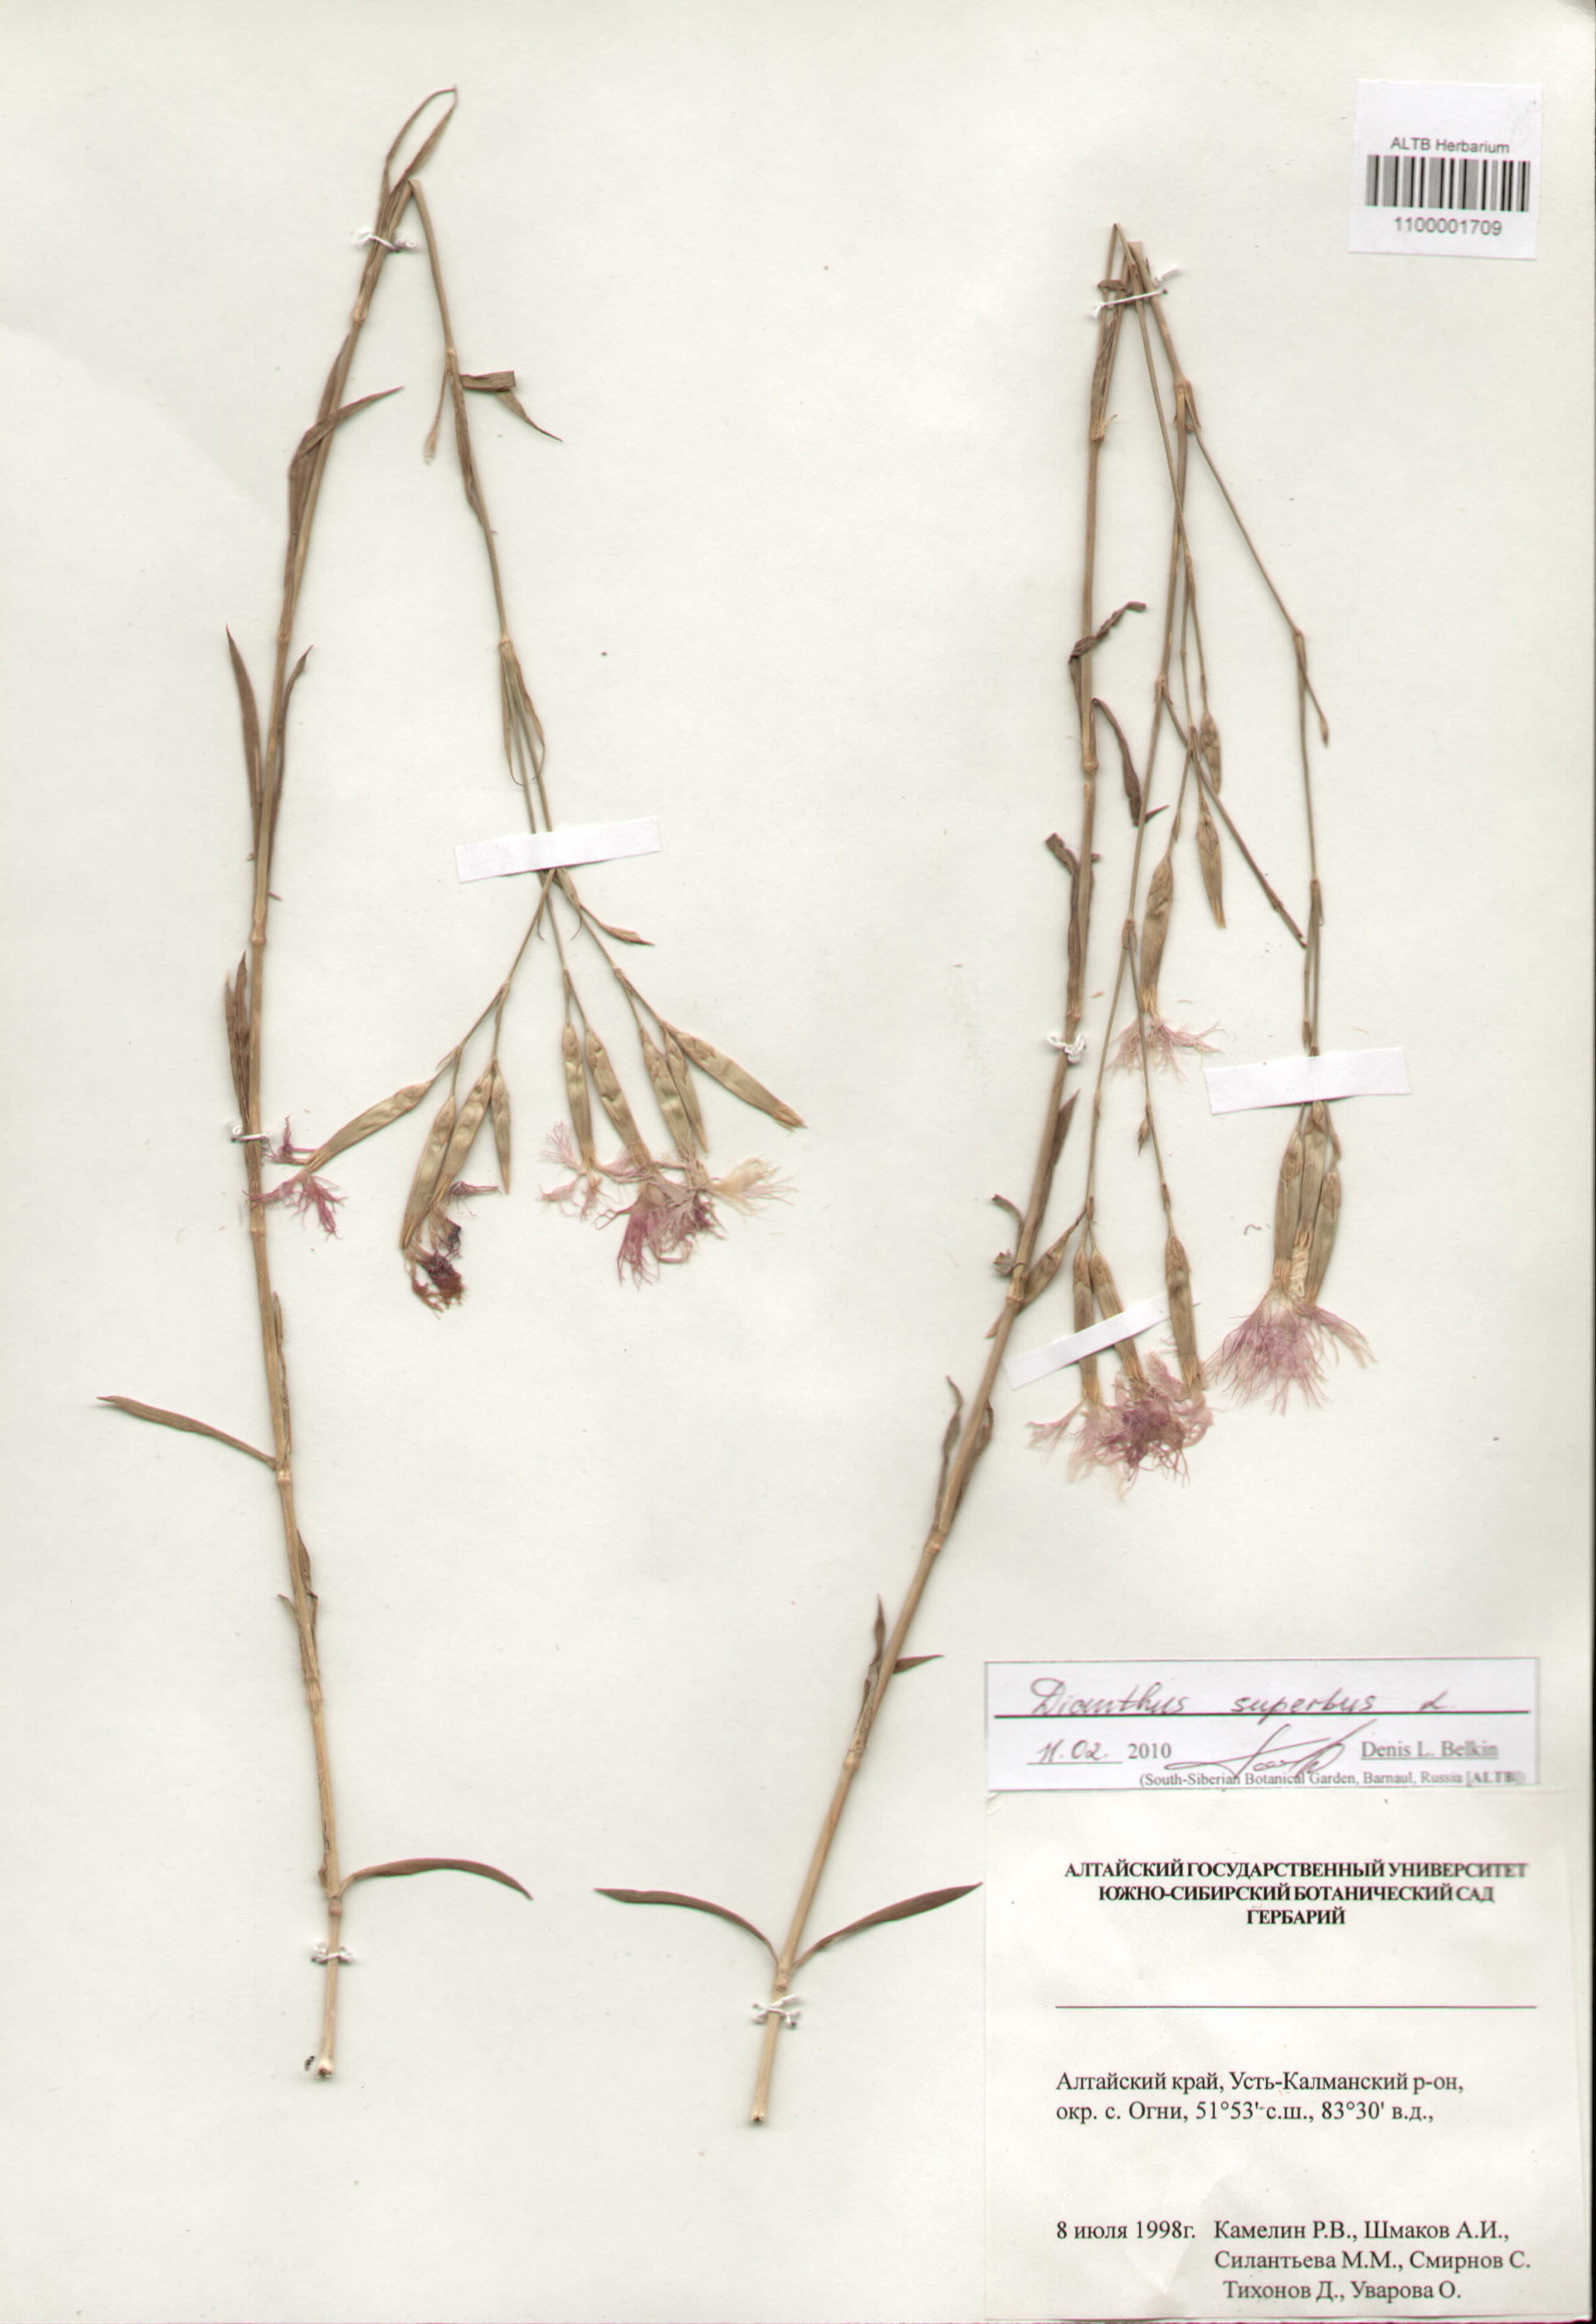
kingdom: Plantae
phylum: Tracheophyta
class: Magnoliopsida
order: Caryophyllales
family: Caryophyllaceae
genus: Dianthus
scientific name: Dianthus superbus
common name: Fringed pink
